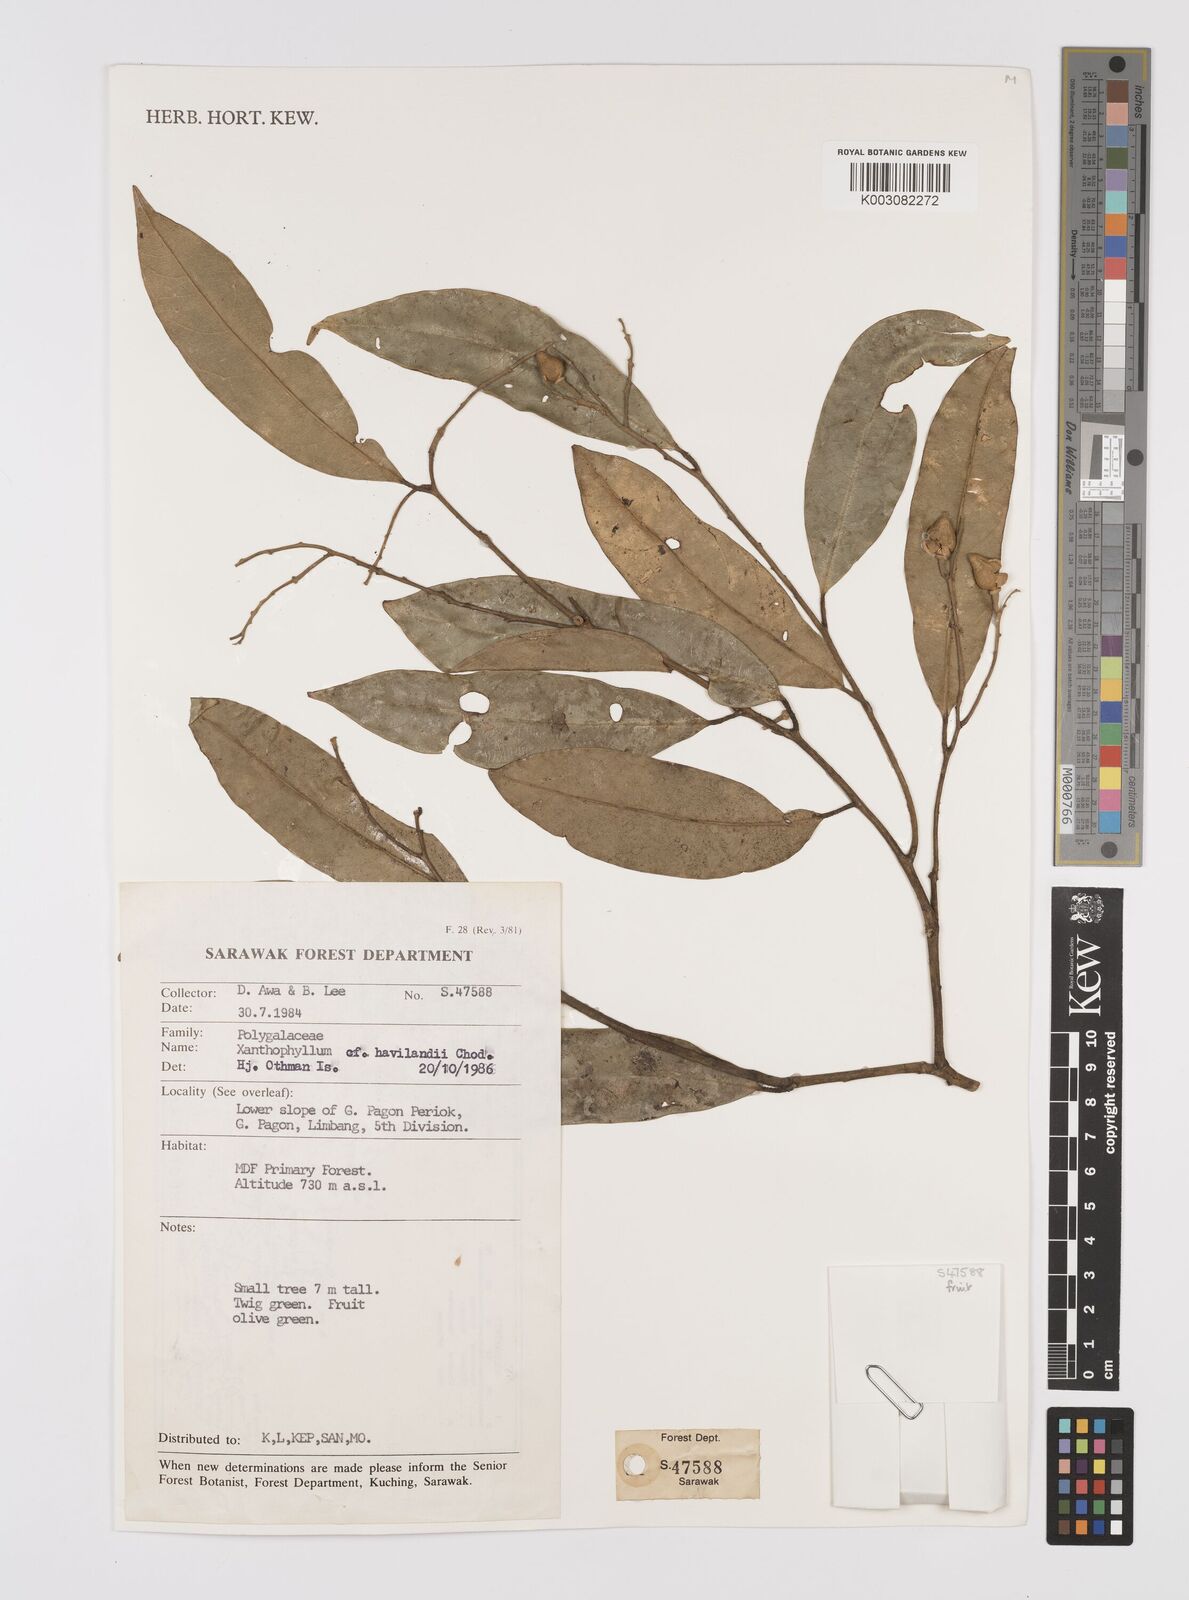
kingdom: Plantae
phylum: Tracheophyta
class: Magnoliopsida
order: Fabales
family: Polygalaceae
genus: Xanthophyllum
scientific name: Xanthophyllum flavescens
